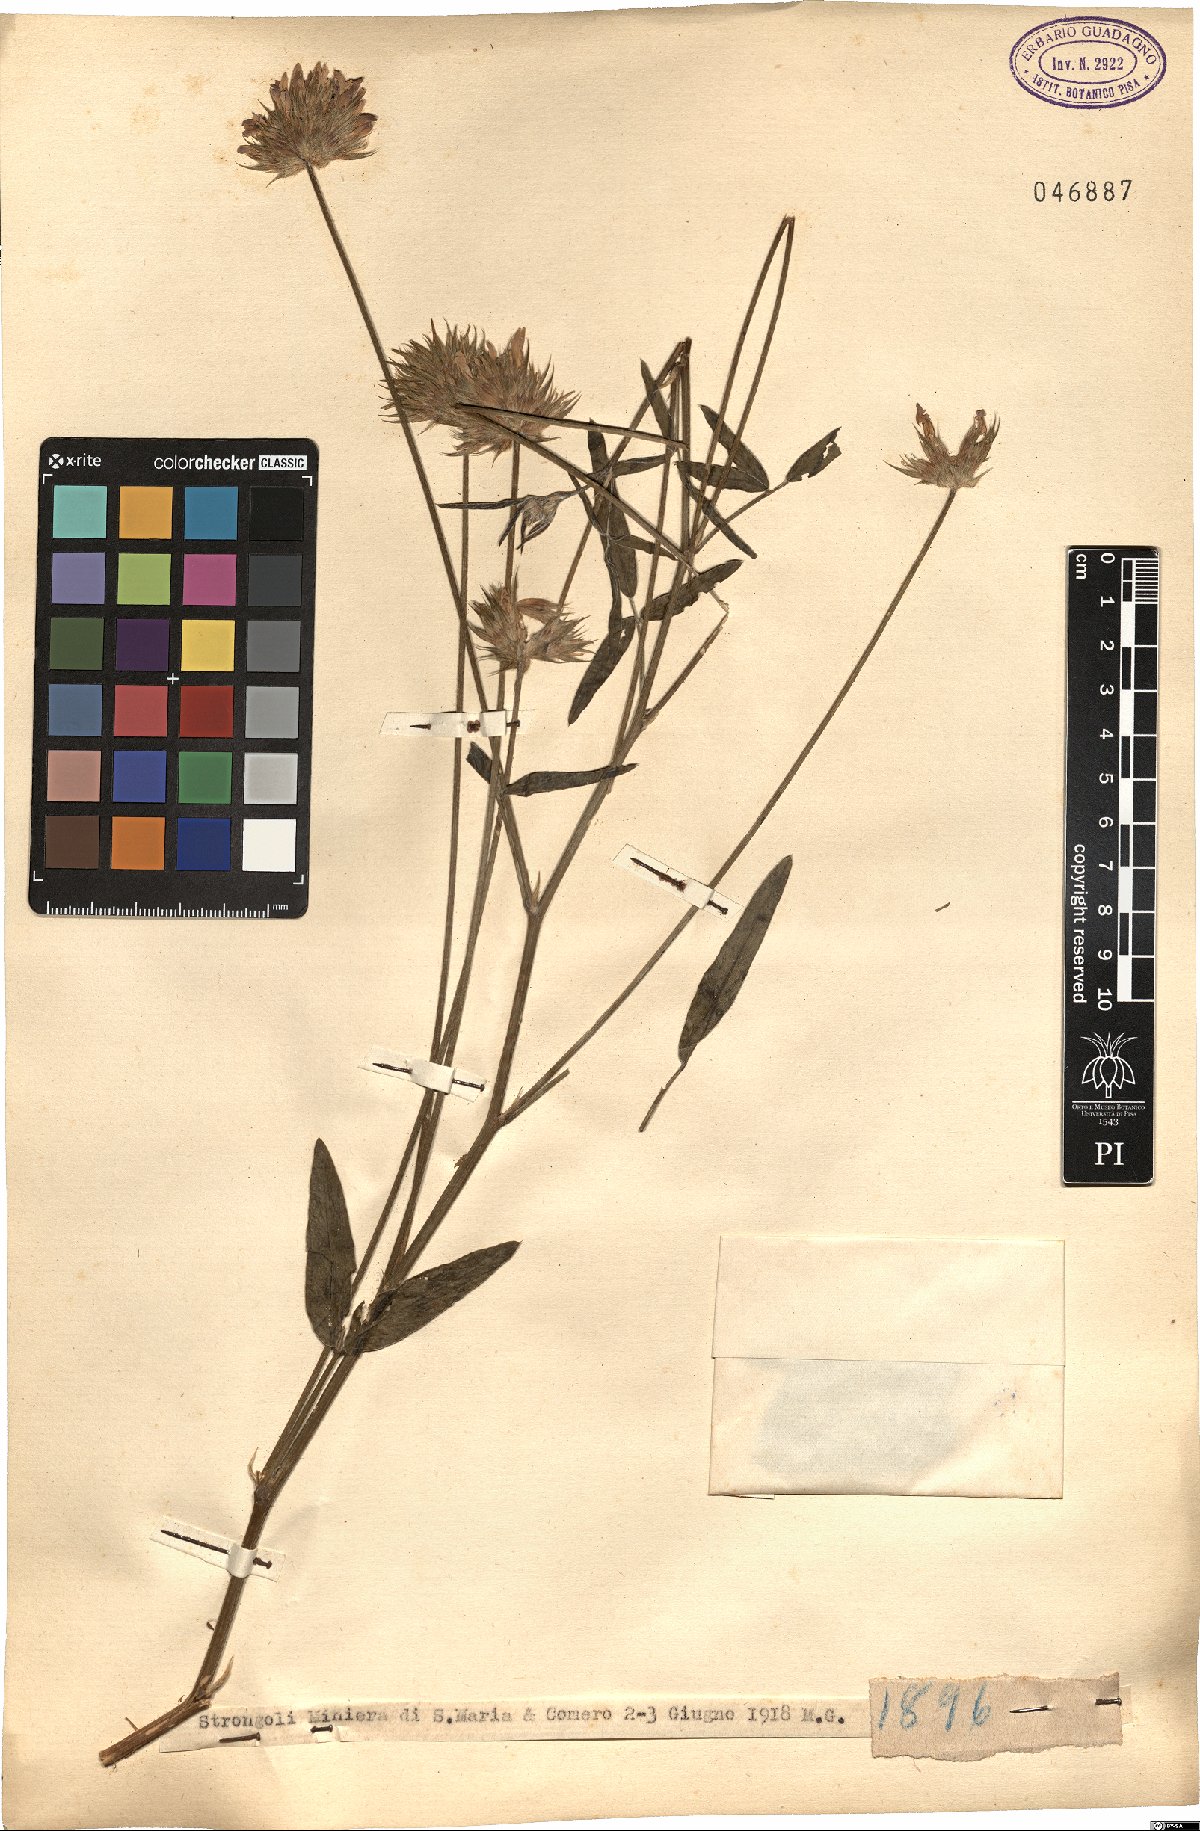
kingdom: Plantae
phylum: Tracheophyta
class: Magnoliopsida
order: Fabales
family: Fabaceae
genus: Psoralea
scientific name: Psoralea
